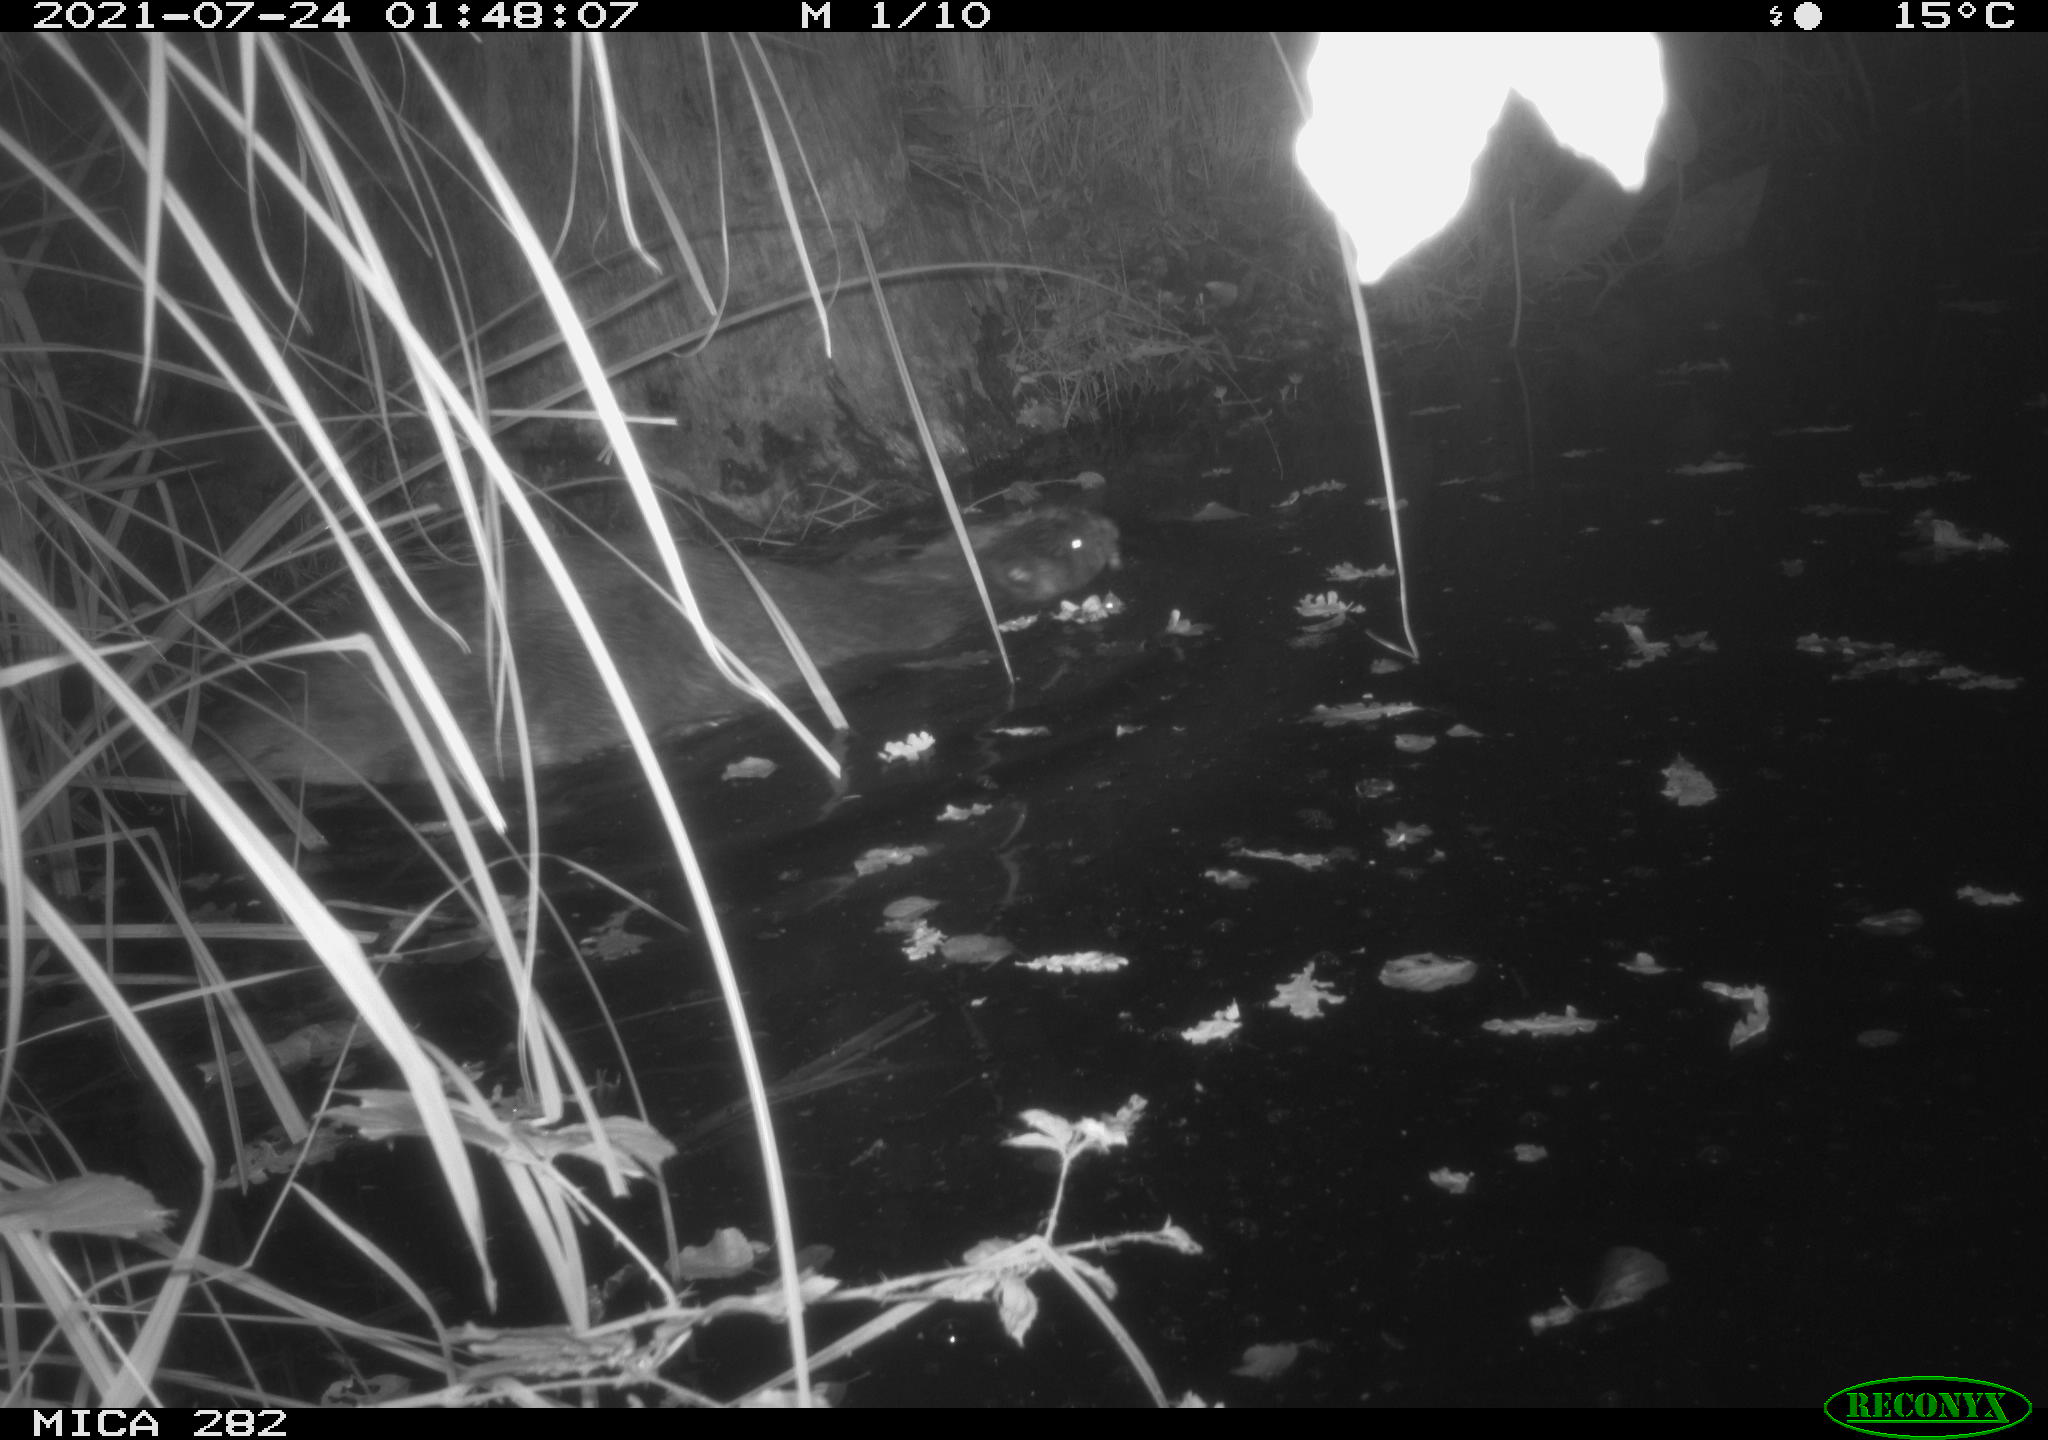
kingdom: Animalia
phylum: Chordata
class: Mammalia
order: Rodentia
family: Castoridae
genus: Castor
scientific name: Castor fiber
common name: Eurasian beaver
